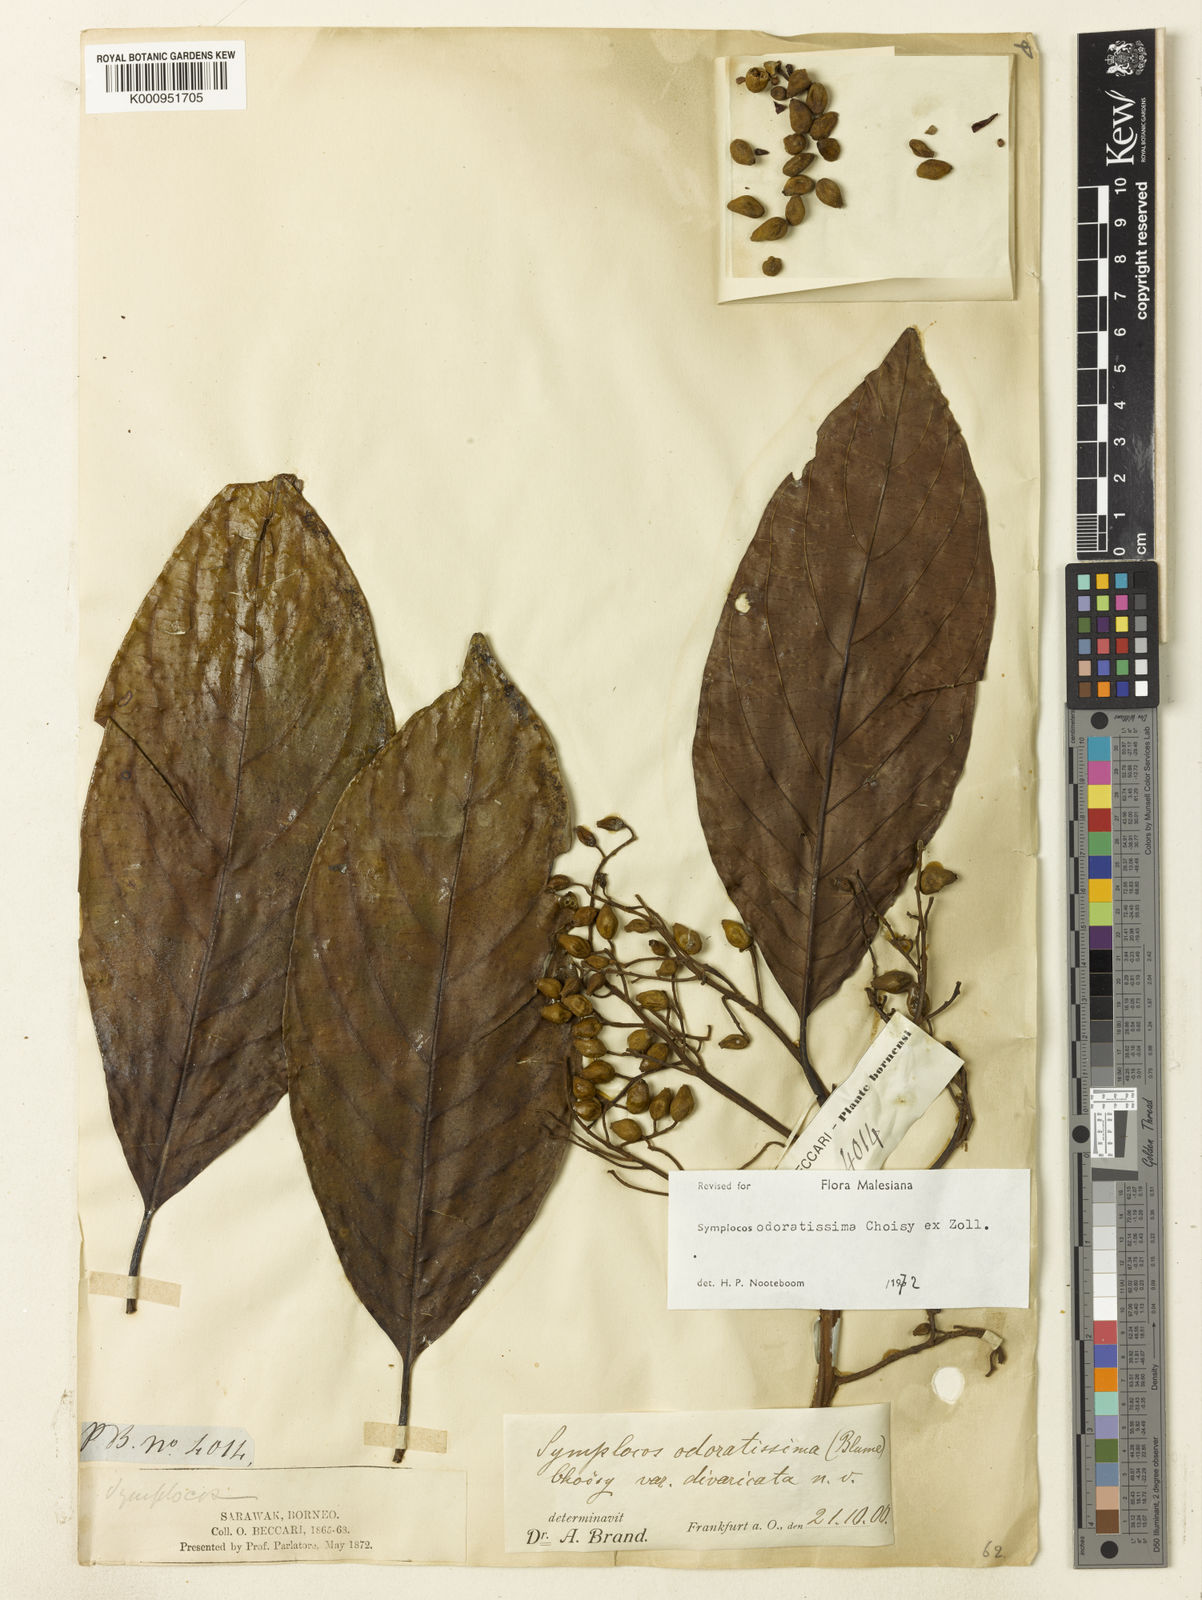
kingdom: Plantae
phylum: Tracheophyta
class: Magnoliopsida
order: Ericales
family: Symplocaceae
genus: Symplocos
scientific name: Symplocos odoratissima
